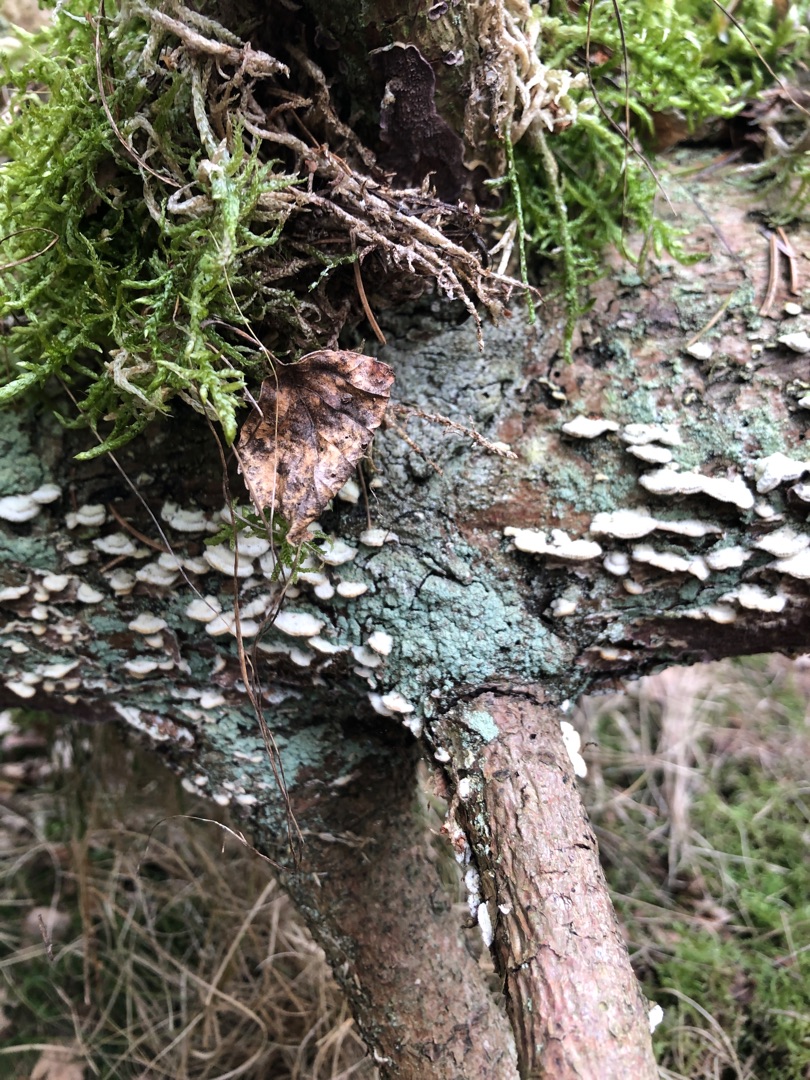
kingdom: Fungi
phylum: Ascomycota
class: Lecanoromycetes
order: Lecanorales
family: Stereocaulaceae
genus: Lepraria
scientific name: Lepraria
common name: Støvlav
